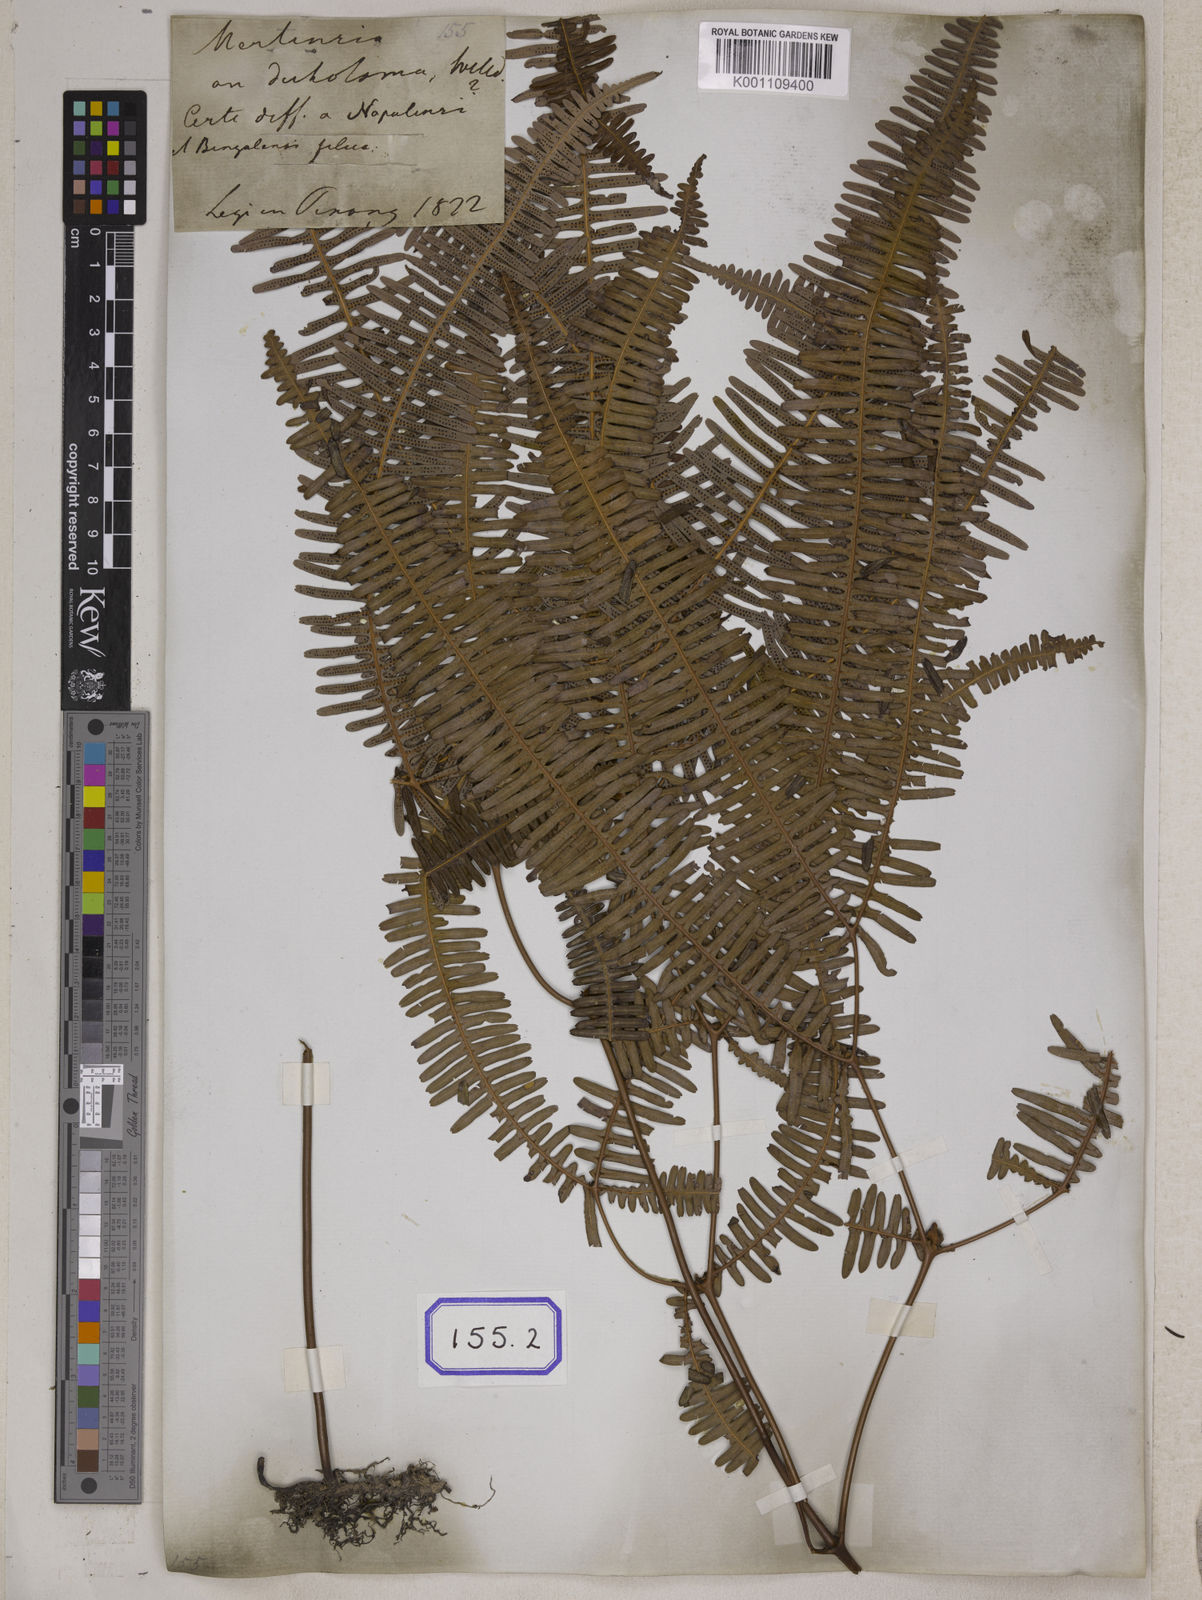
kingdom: Plantae
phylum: Tracheophyta
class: Polypodiopsida
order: Gleicheniales
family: Gleicheniaceae
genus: Dicranopteris
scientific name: Dicranopteris linearis
